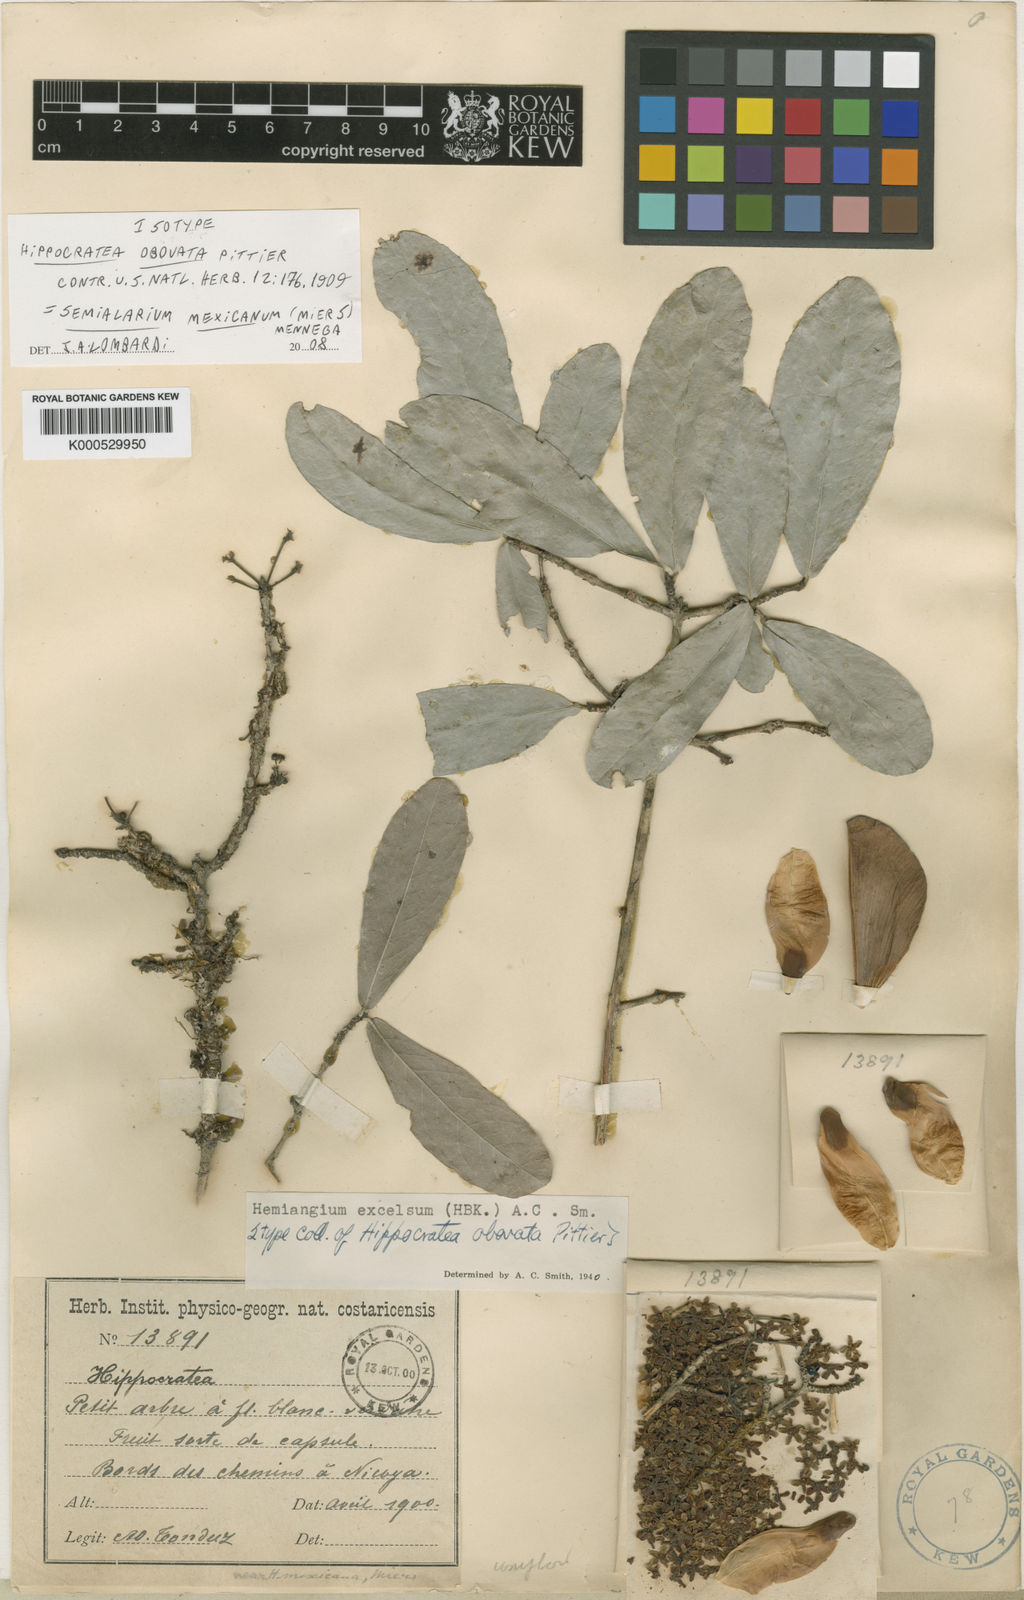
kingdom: Plantae
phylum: Tracheophyta
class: Magnoliopsida
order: Celastrales
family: Celastraceae
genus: Semialarium
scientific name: Semialarium mexicanum
